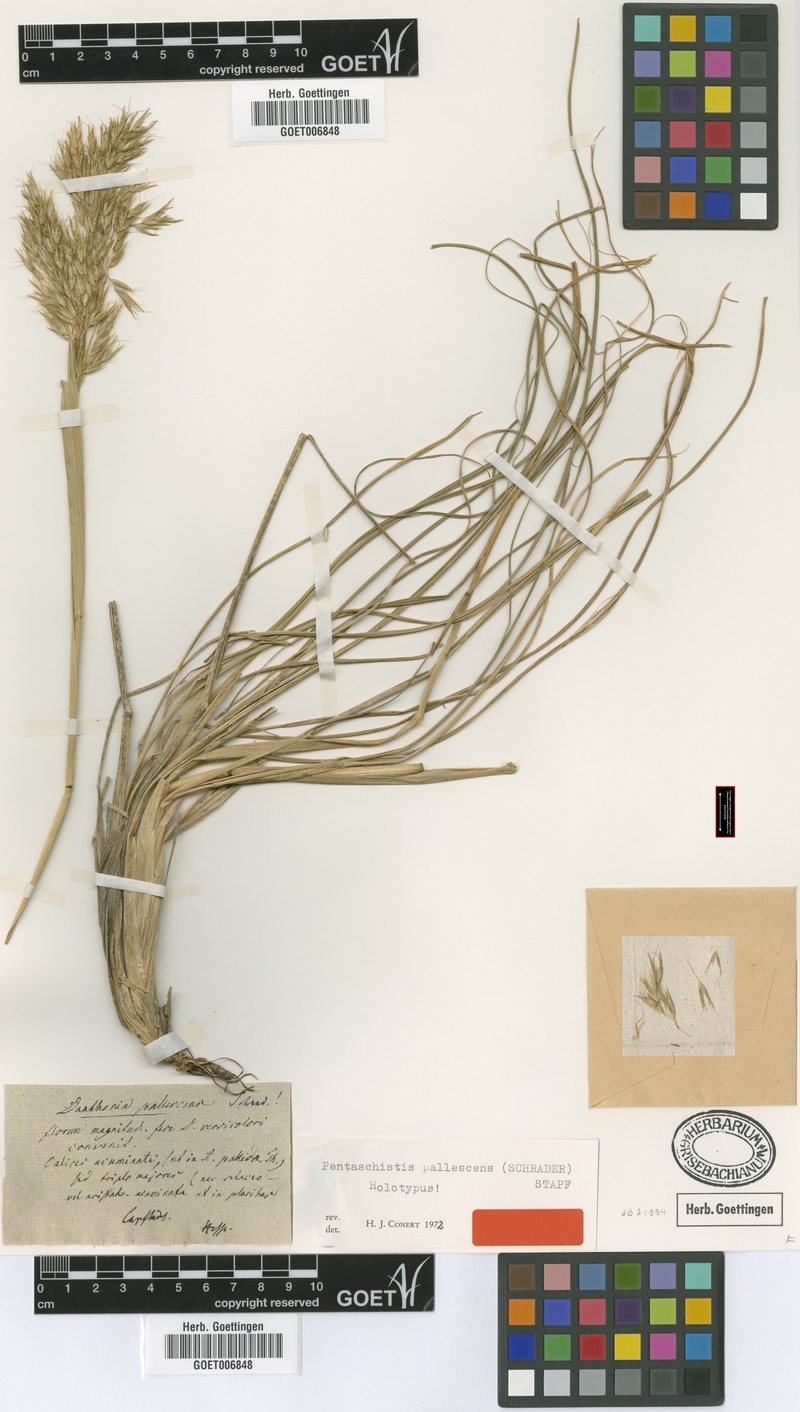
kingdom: Plantae
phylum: Tracheophyta
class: Liliopsida
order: Poales
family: Poaceae
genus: Pentameris
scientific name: Pentameris pallescens
